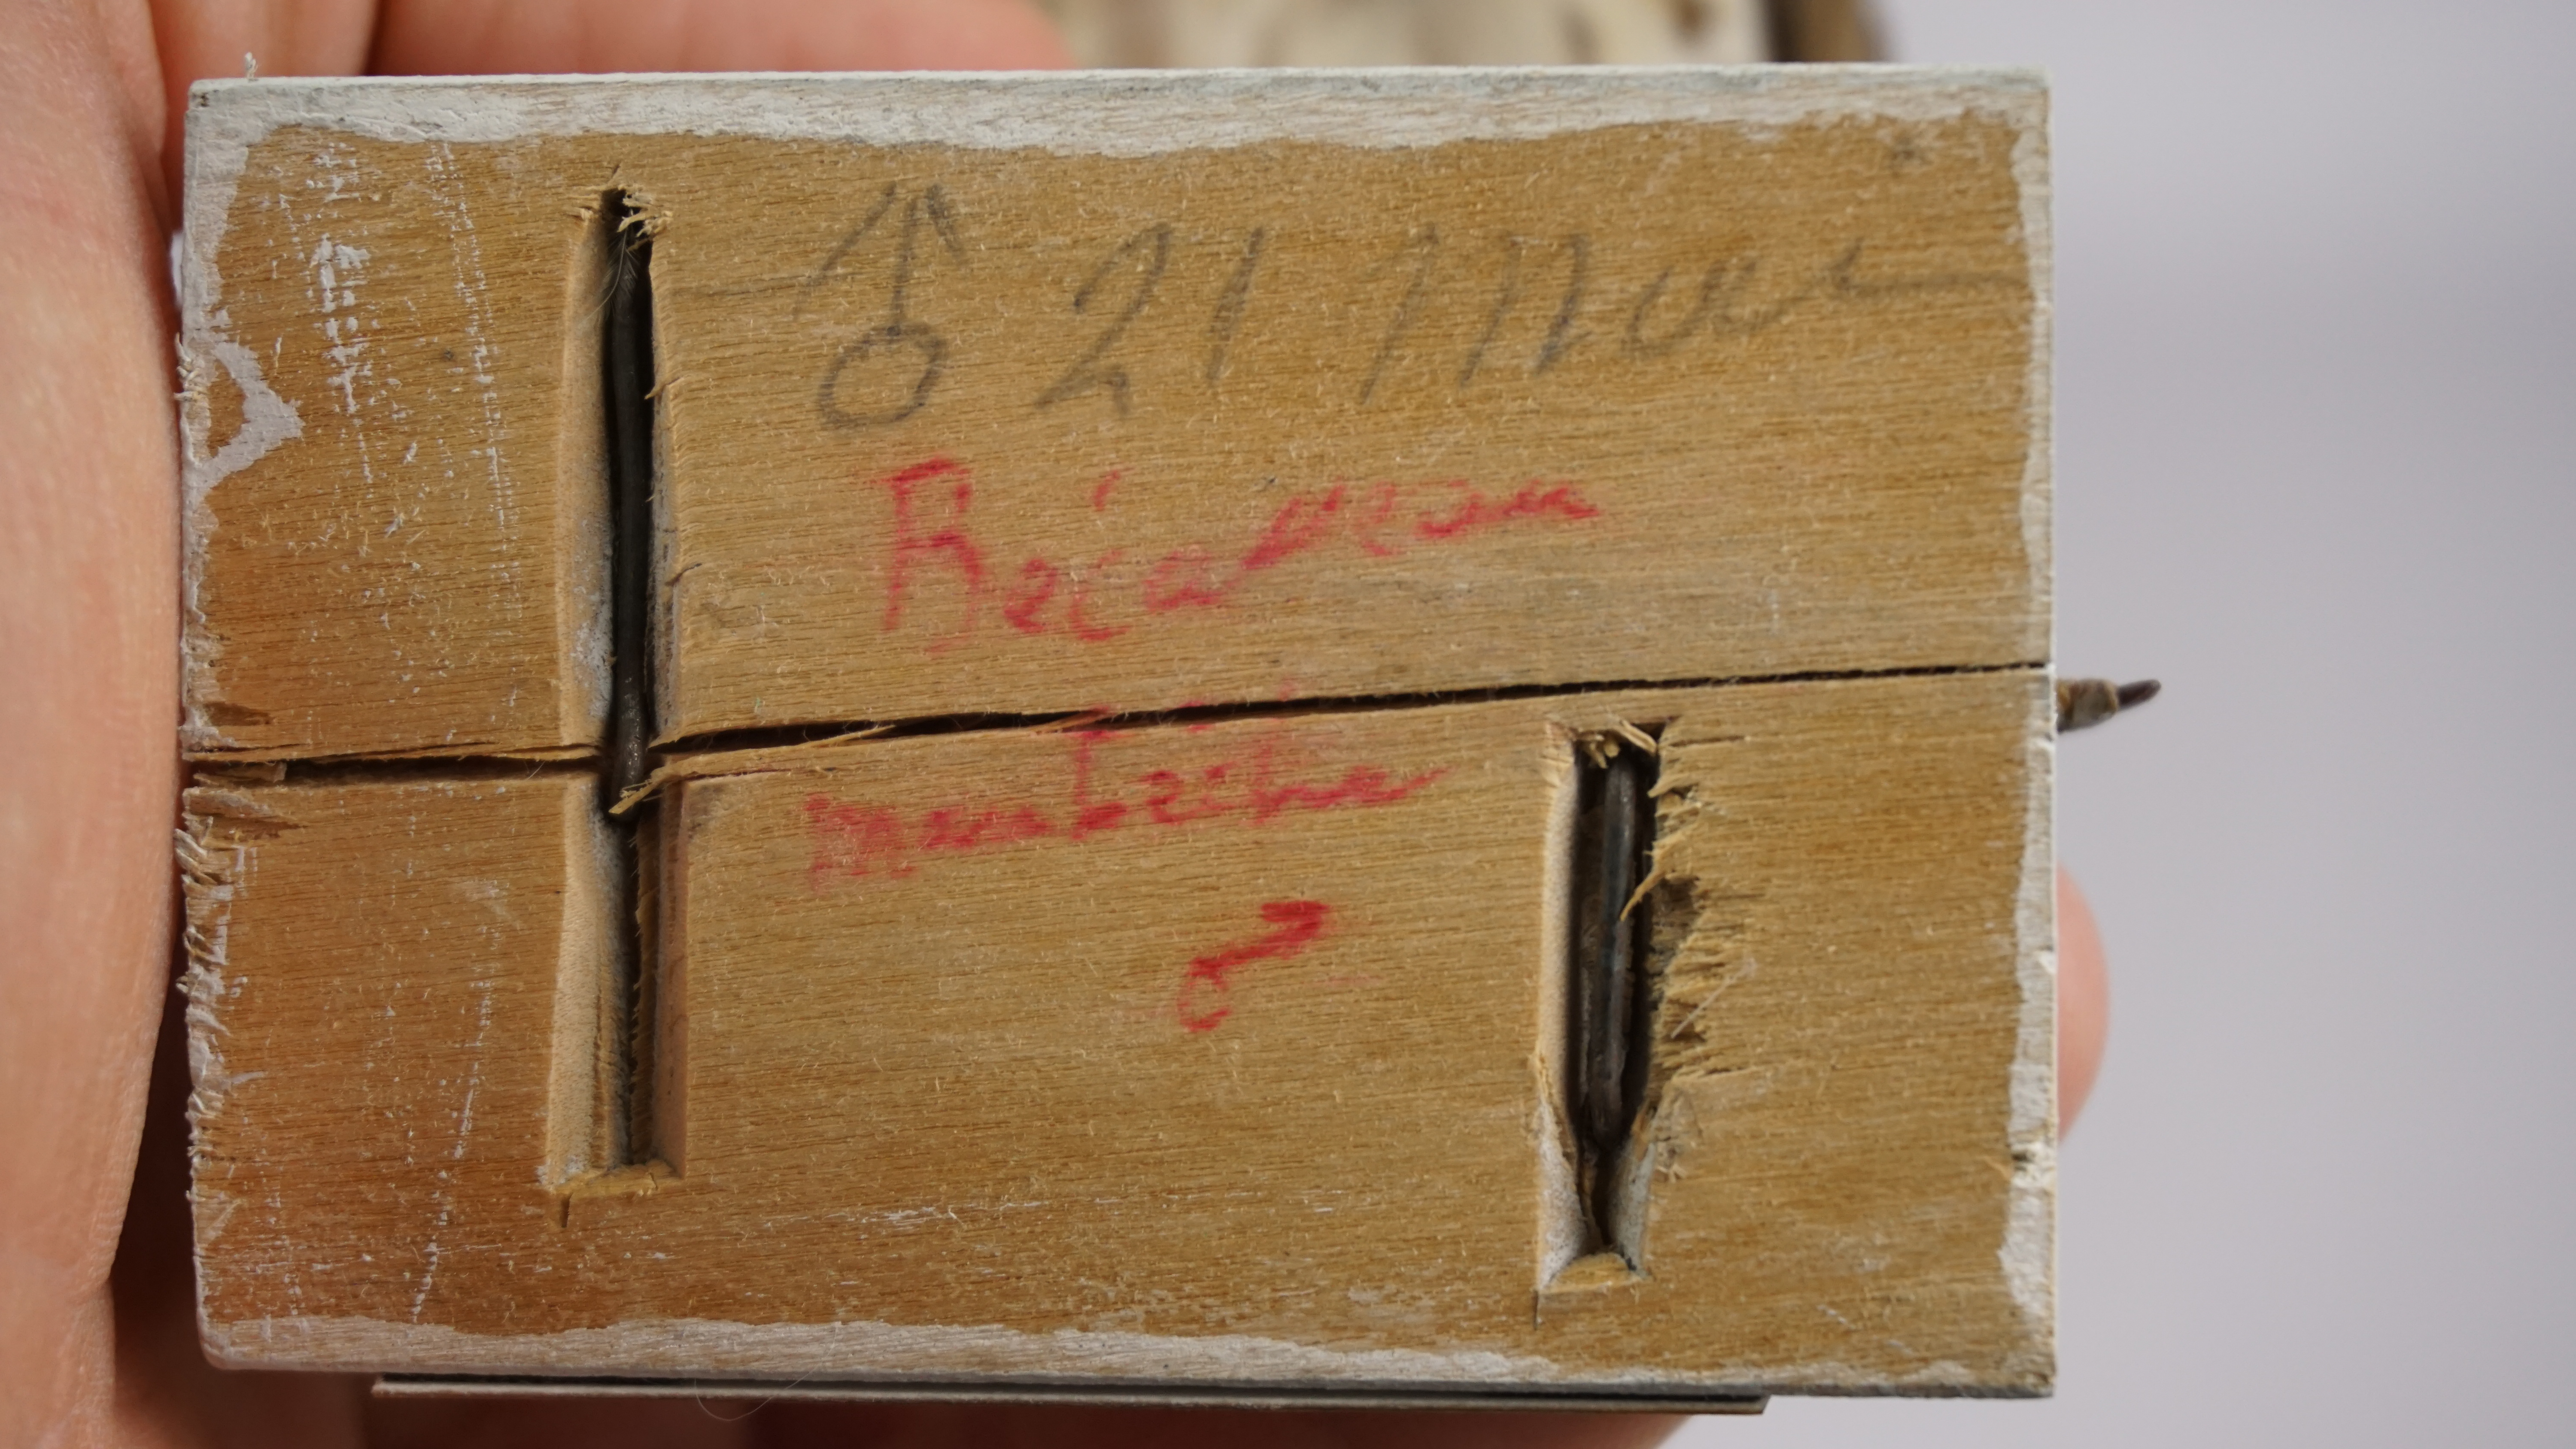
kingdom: Animalia
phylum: Chordata
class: Aves
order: Charadriiformes
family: Scolopacidae
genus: Calidris
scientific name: Calidris canutus
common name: Red knot
